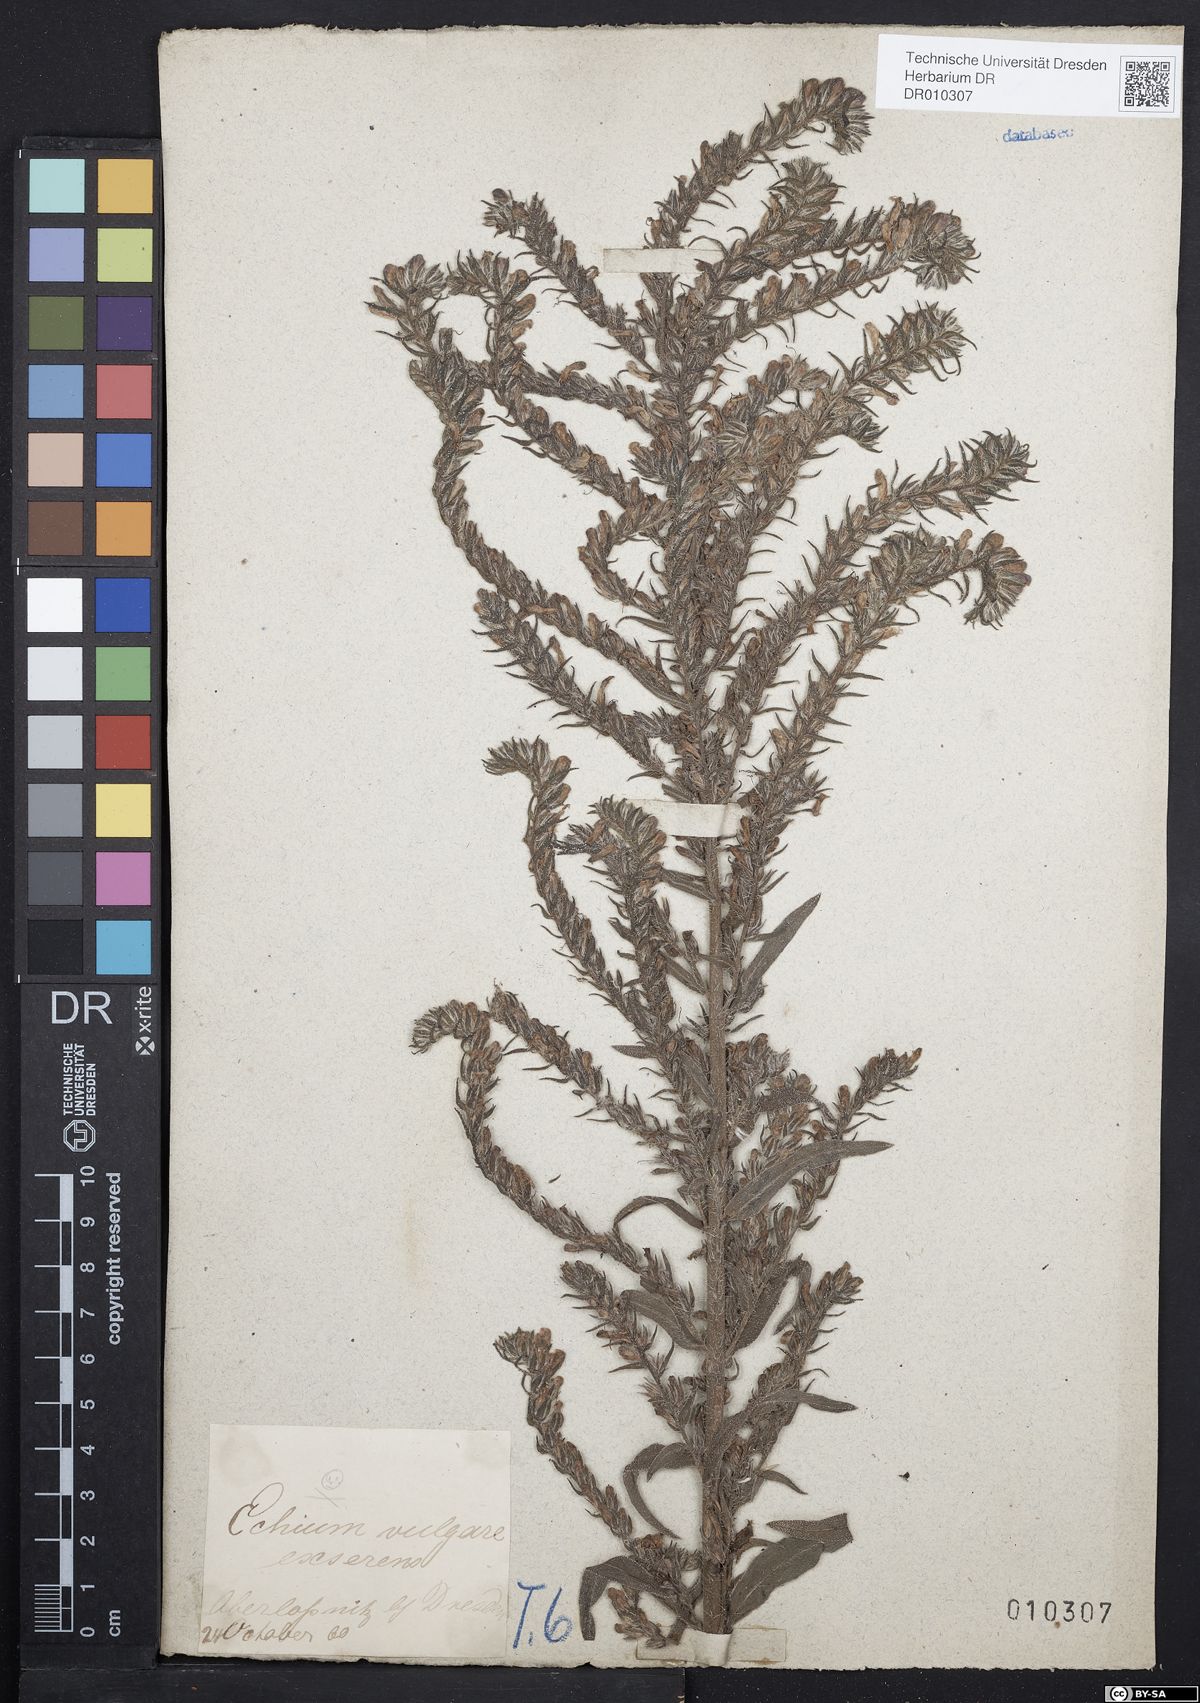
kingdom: Plantae
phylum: Tracheophyta
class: Magnoliopsida
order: Boraginales
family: Boraginaceae
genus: Echium
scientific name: Echium vulgare
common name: Common viper's bugloss
